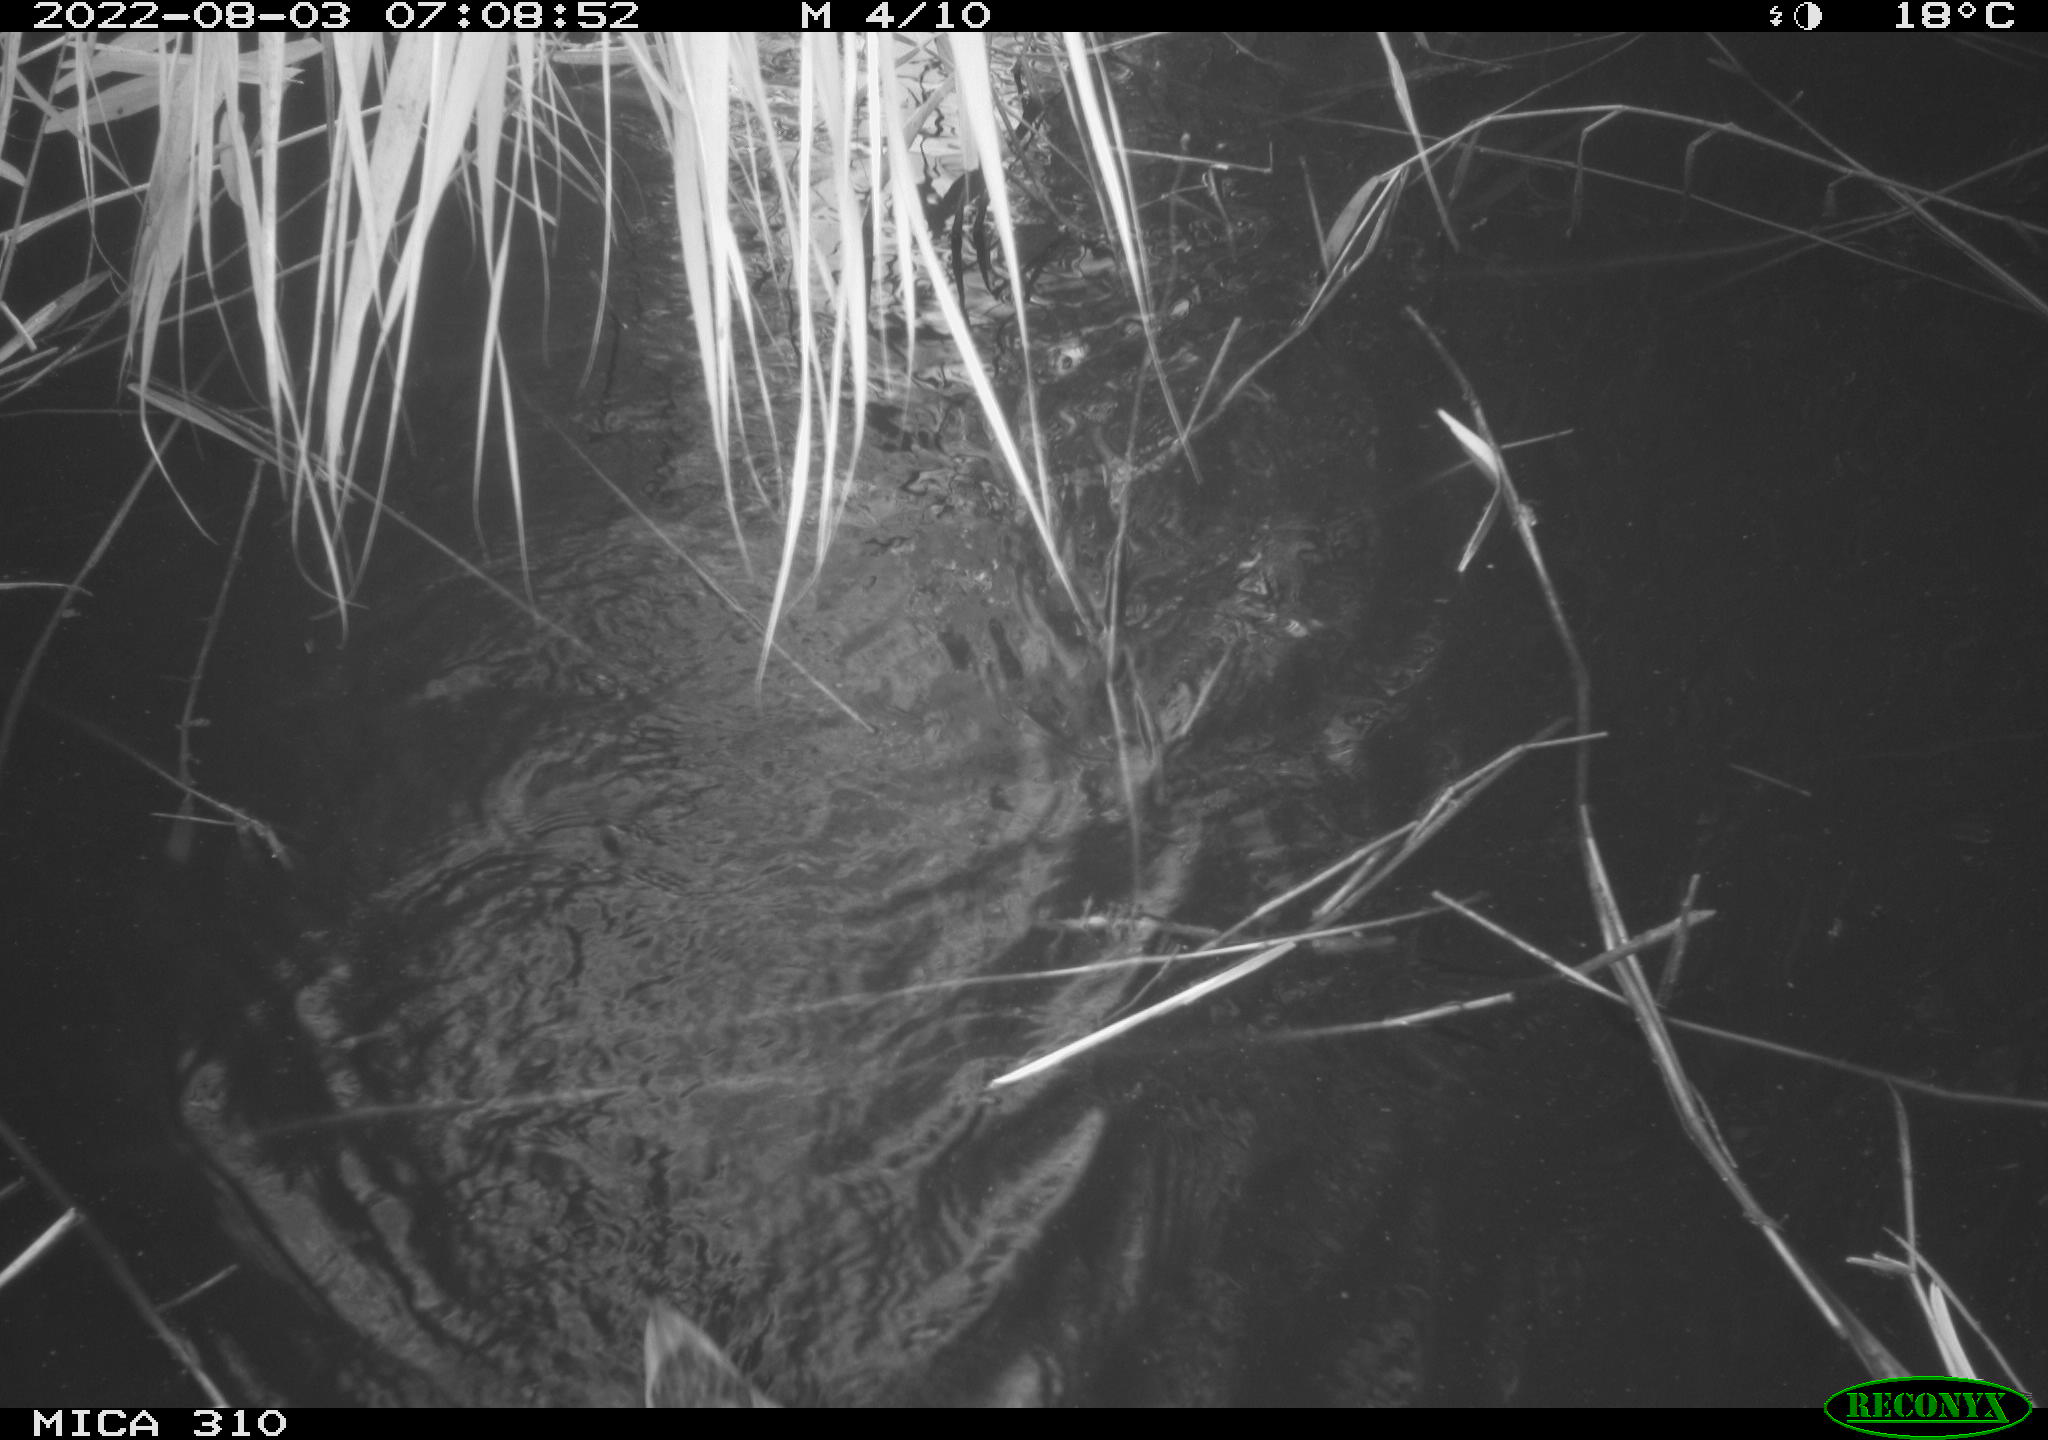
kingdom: Animalia
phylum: Chordata
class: Aves
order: Anseriformes
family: Anatidae
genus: Anas
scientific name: Anas platyrhynchos
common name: Mallard
